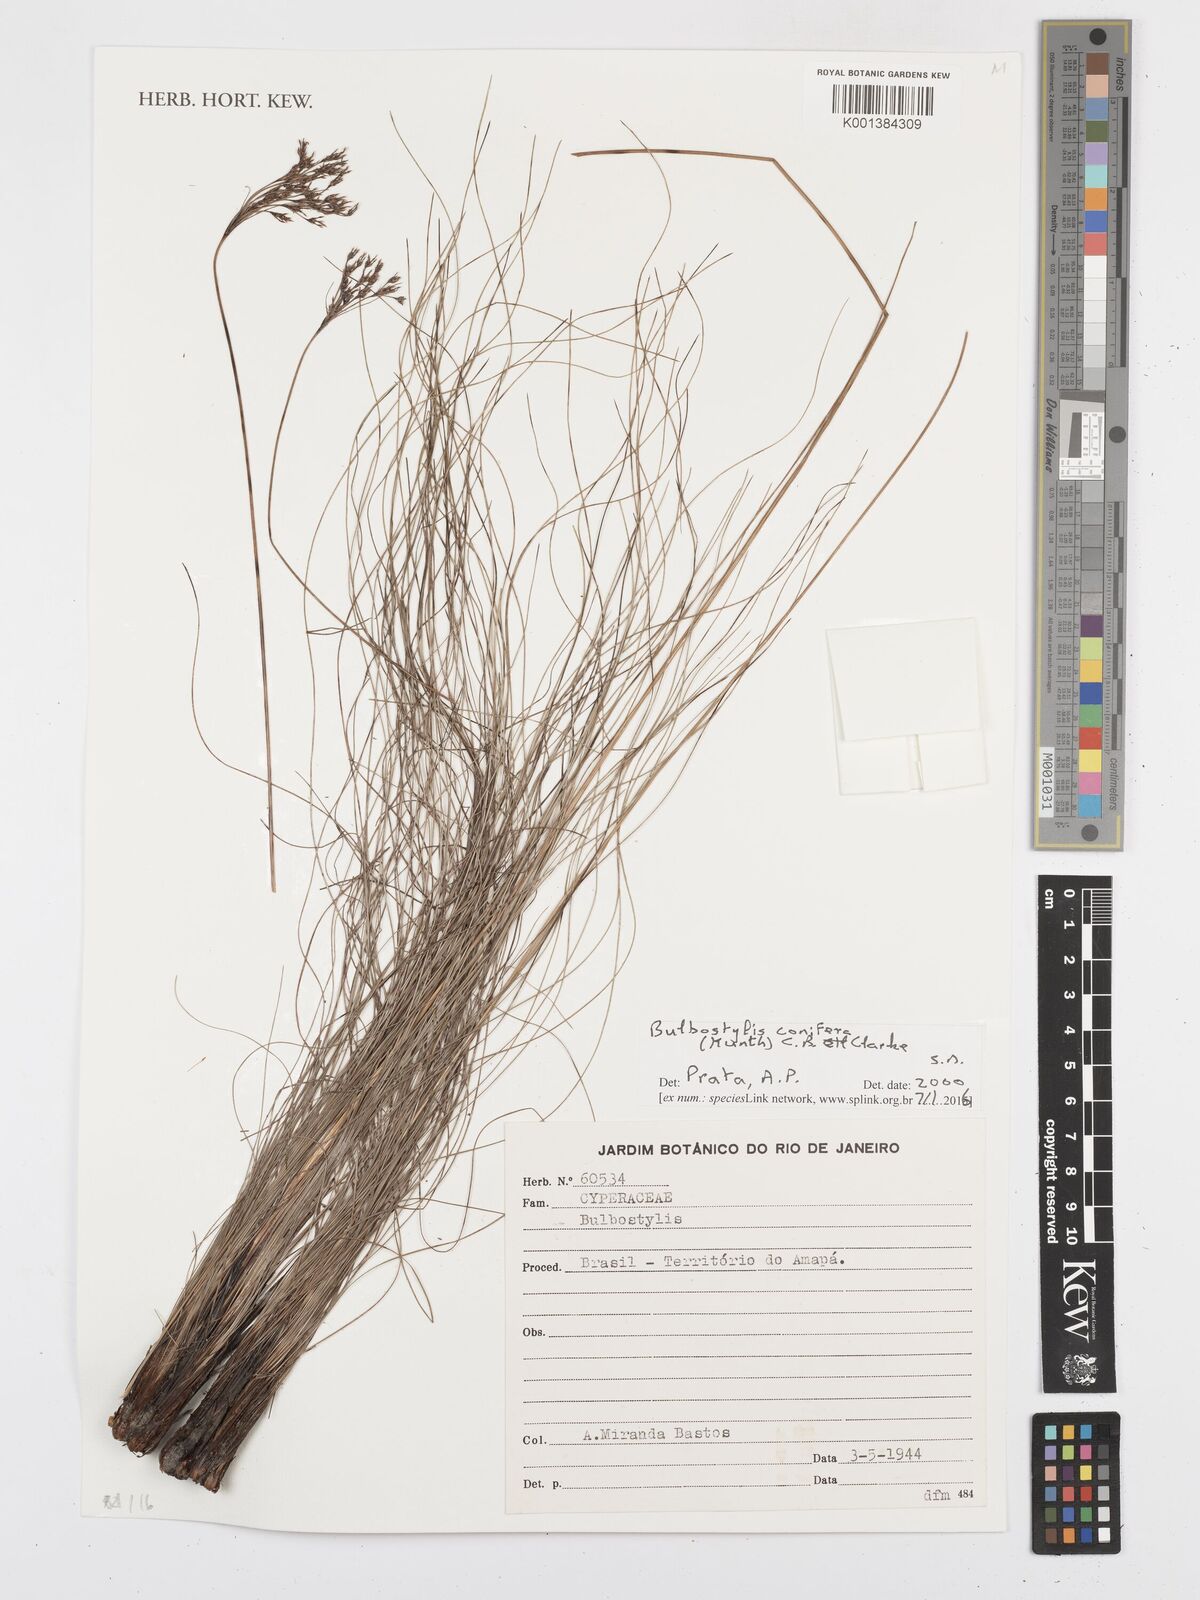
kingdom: Plantae
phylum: Tracheophyta
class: Liliopsida
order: Poales
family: Cyperaceae
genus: Bulbostylis
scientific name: Bulbostylis conifera
